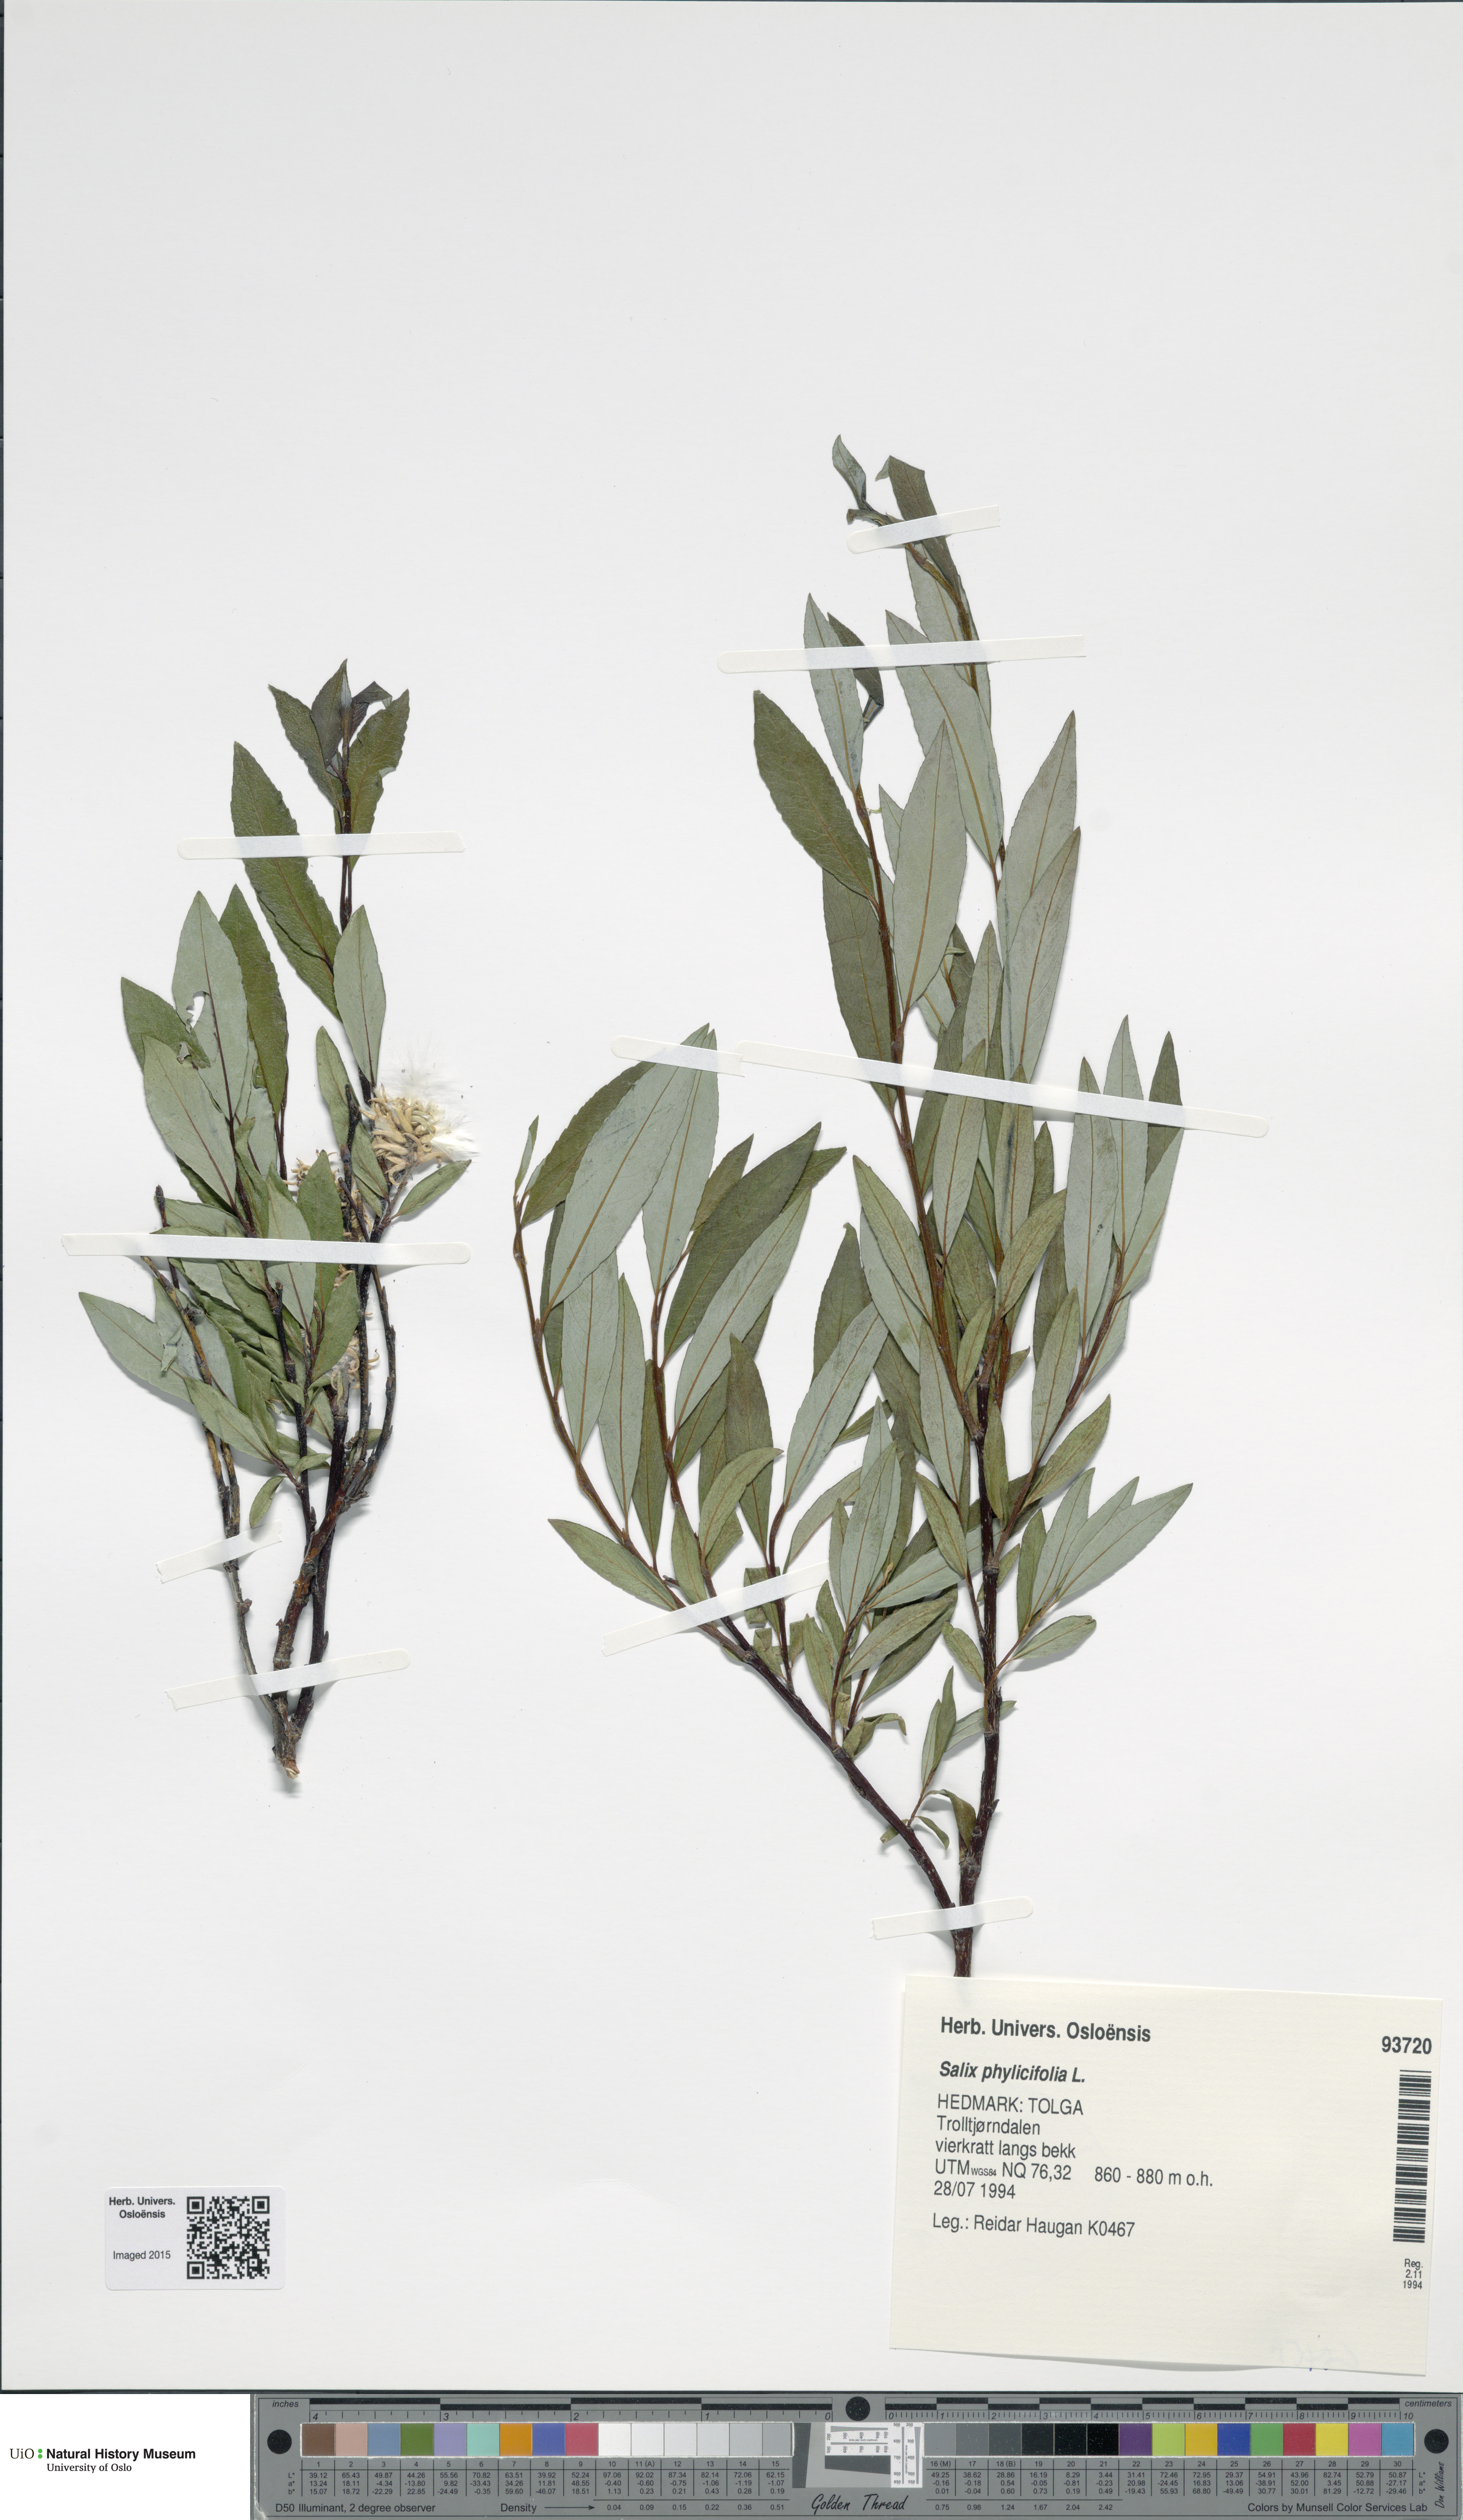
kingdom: Plantae
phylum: Tracheophyta
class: Magnoliopsida
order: Malpighiales
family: Salicaceae
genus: Salix
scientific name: Salix phylicifolia
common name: Tea-leaved willow
